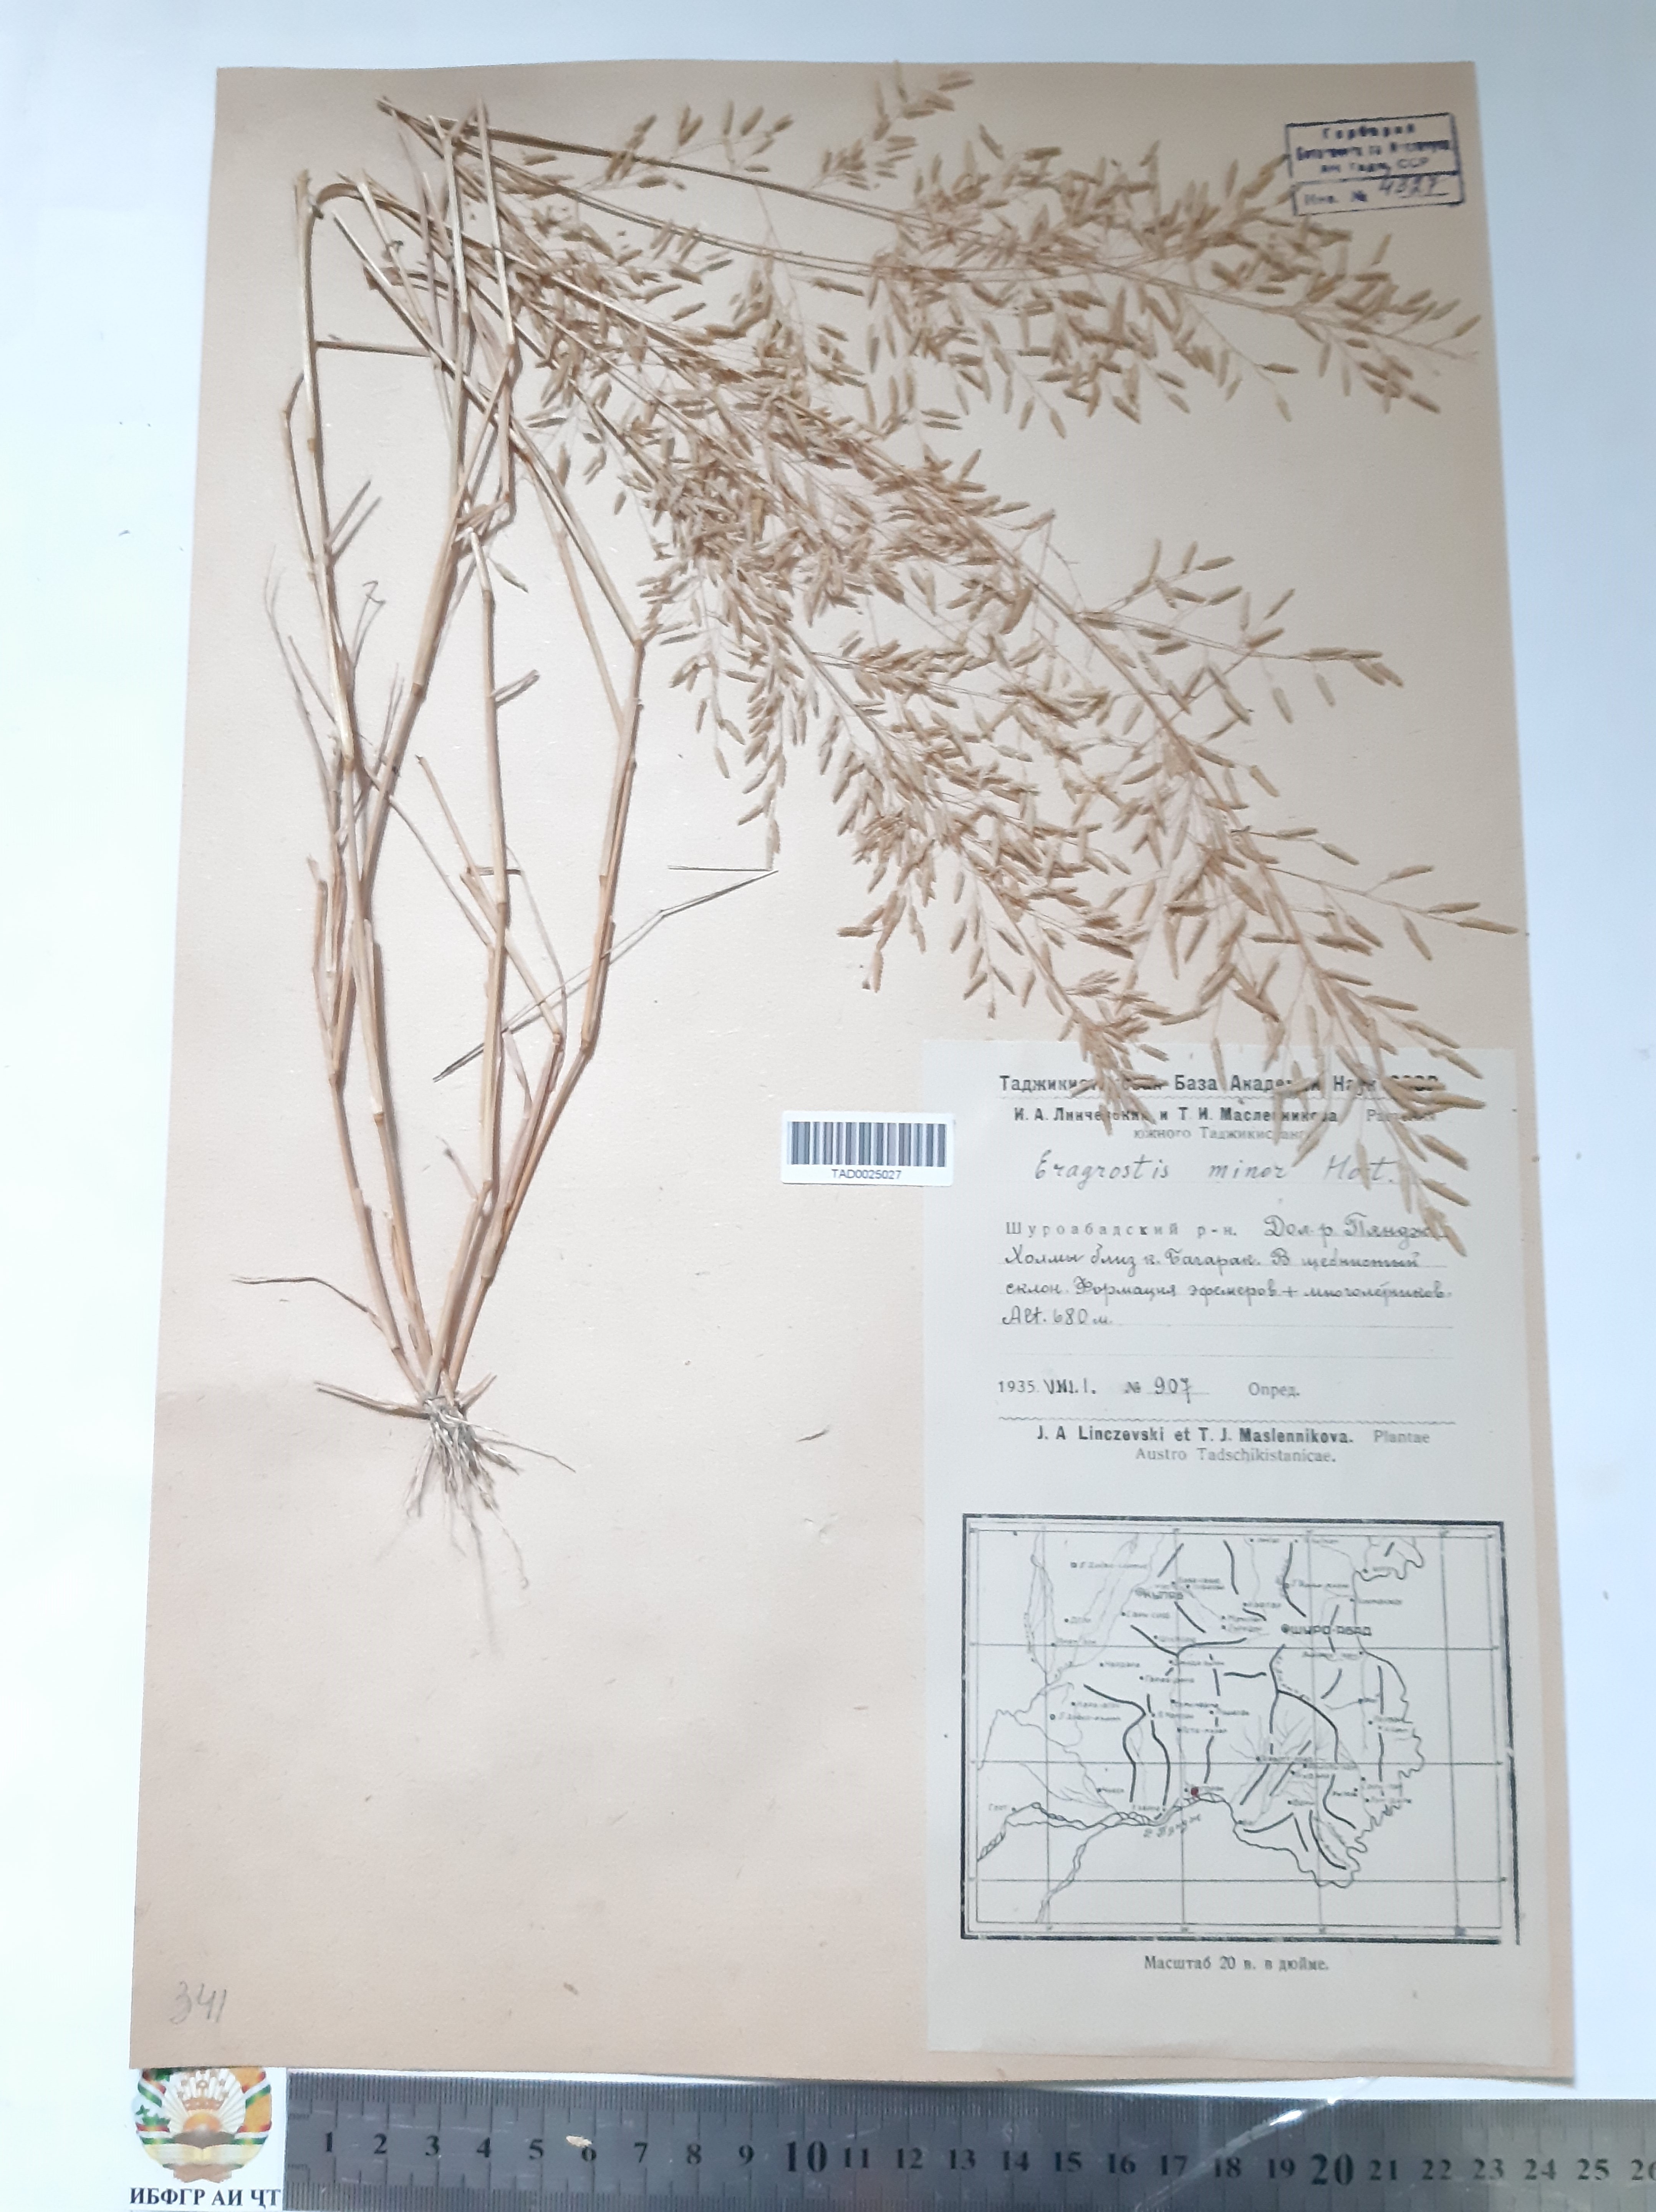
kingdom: Plantae
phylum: Tracheophyta
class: Liliopsida
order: Poales
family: Poaceae
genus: Eragrostis
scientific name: Eragrostis minor
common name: Small love-grass
